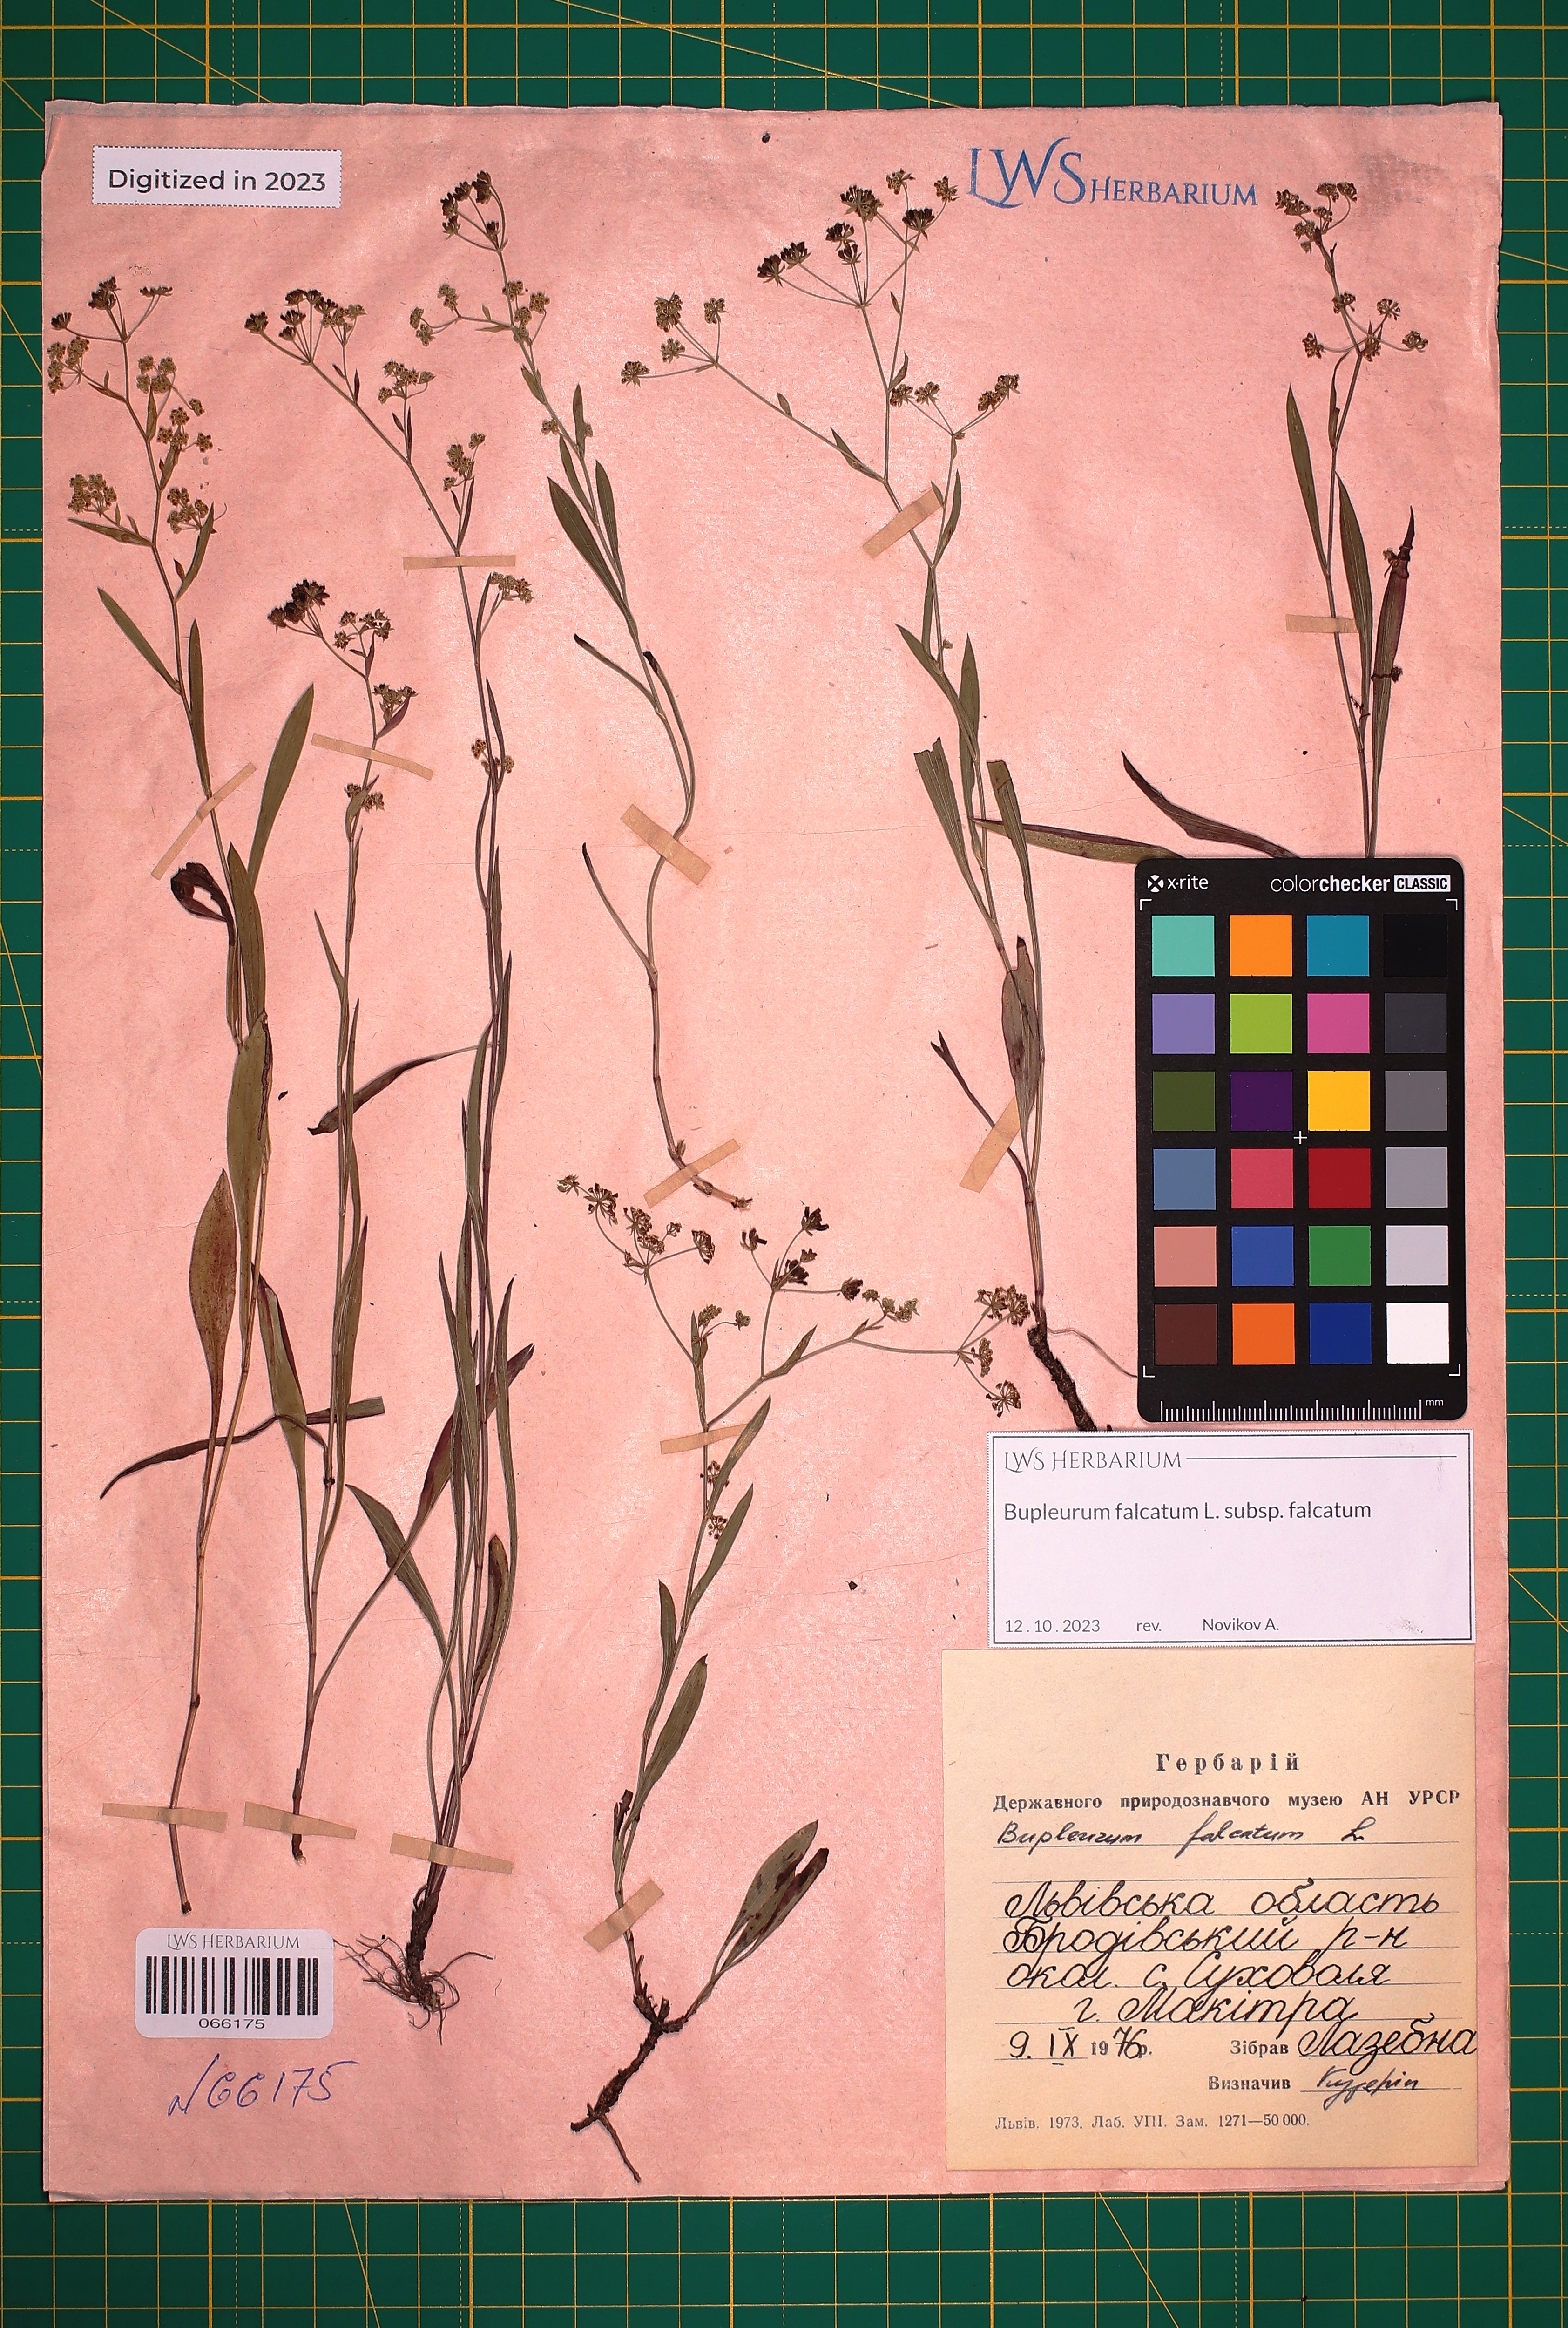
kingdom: Plantae
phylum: Tracheophyta
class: Magnoliopsida
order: Apiales
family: Apiaceae
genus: Bupleurum
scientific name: Bupleurum falcatum
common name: Sickle-leaved hare's-ear
